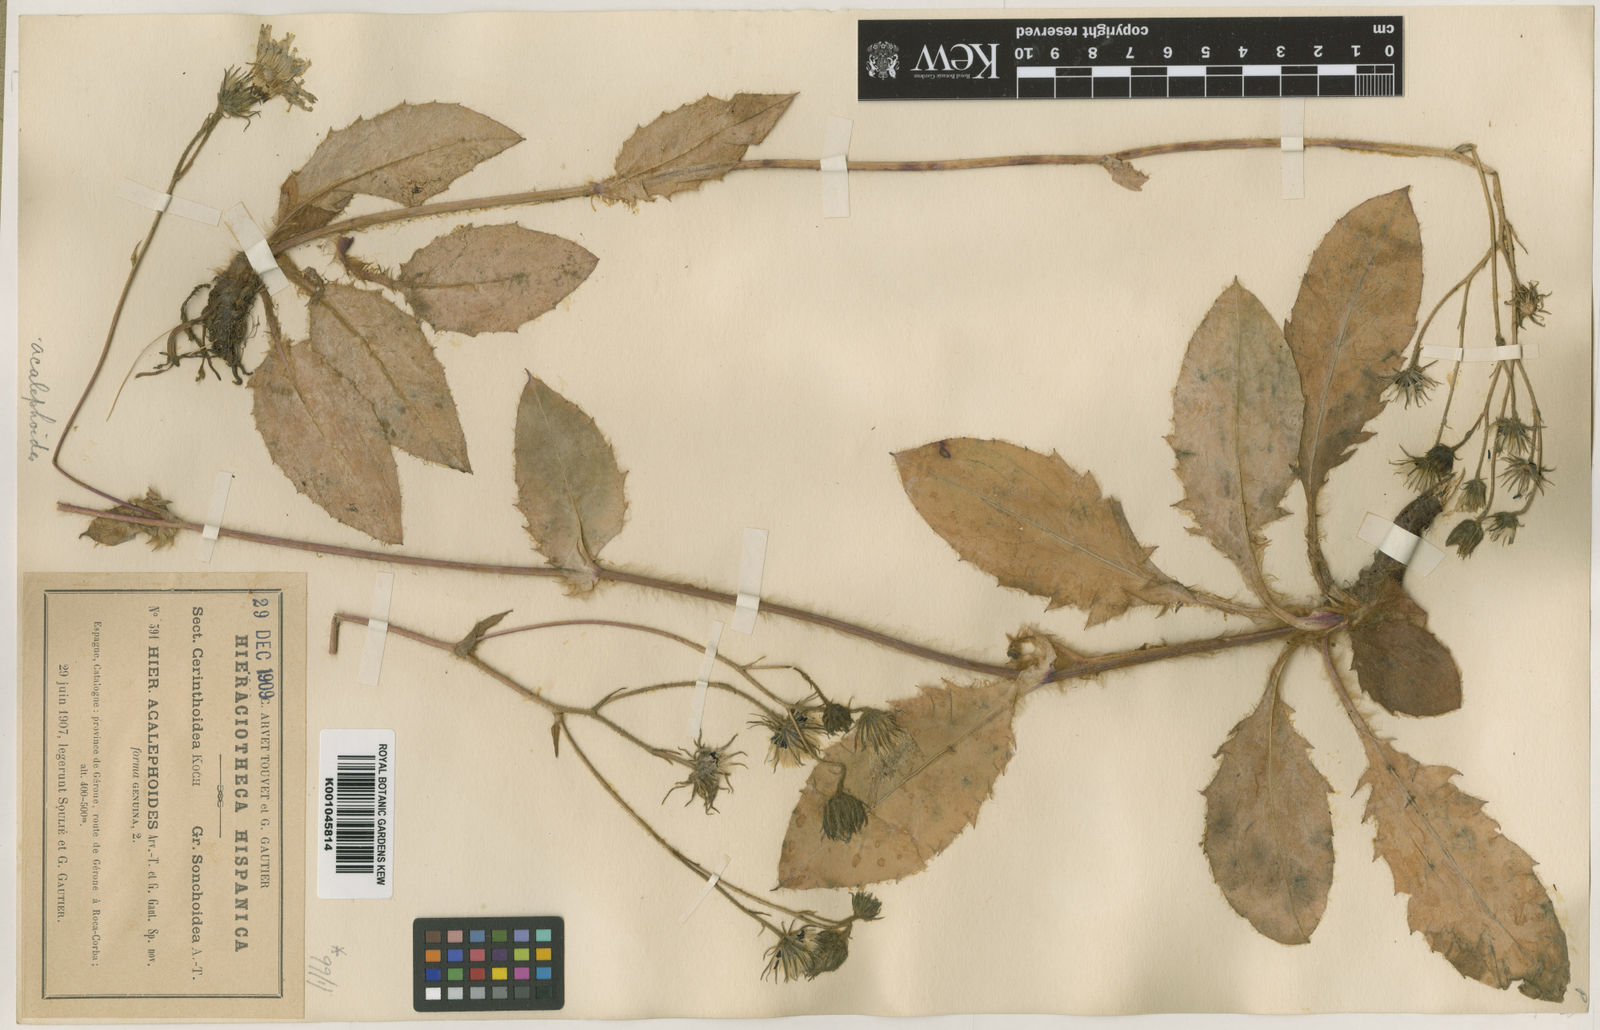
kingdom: Plantae
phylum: Tracheophyta
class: Magnoliopsida
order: Asterales
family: Asteraceae
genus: Hieracium
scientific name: Hieracium sonchoides
